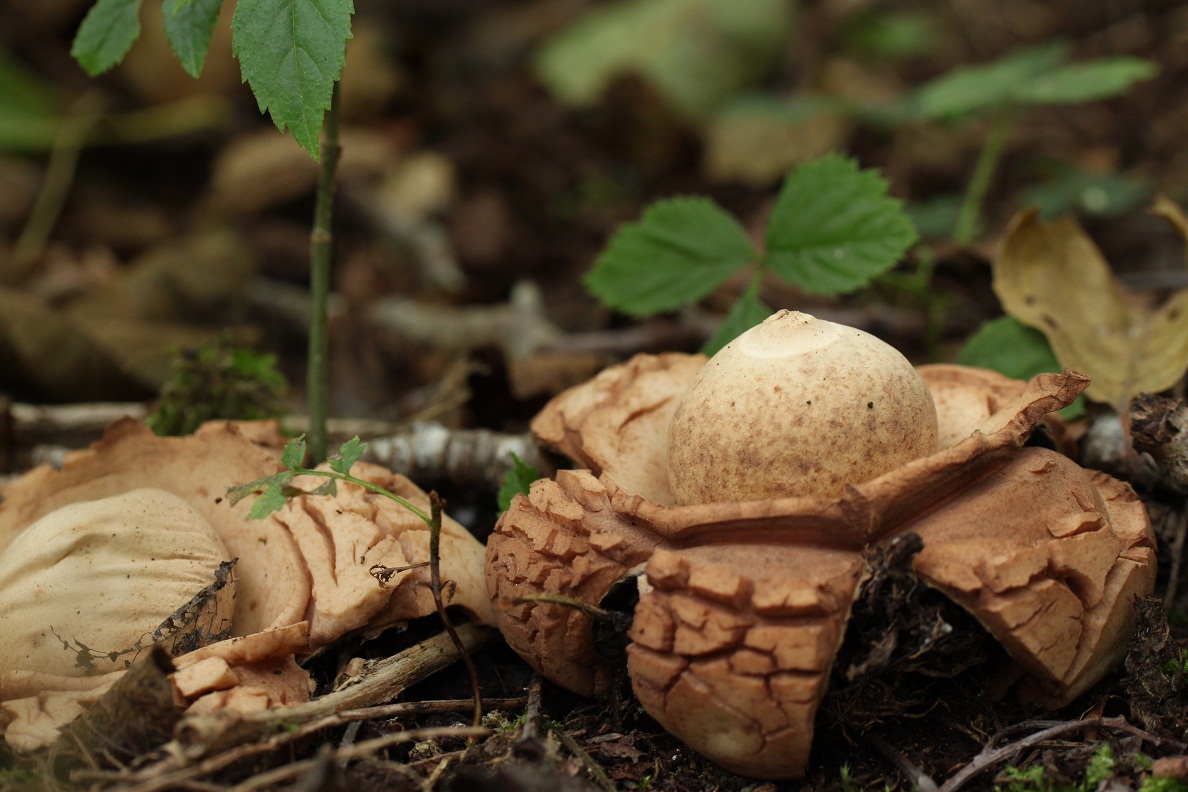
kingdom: Fungi
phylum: Basidiomycota
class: Agaricomycetes
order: Geastrales
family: Geastraceae
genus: Geastrum
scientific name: Geastrum michelianum
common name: kødet stjernebold
